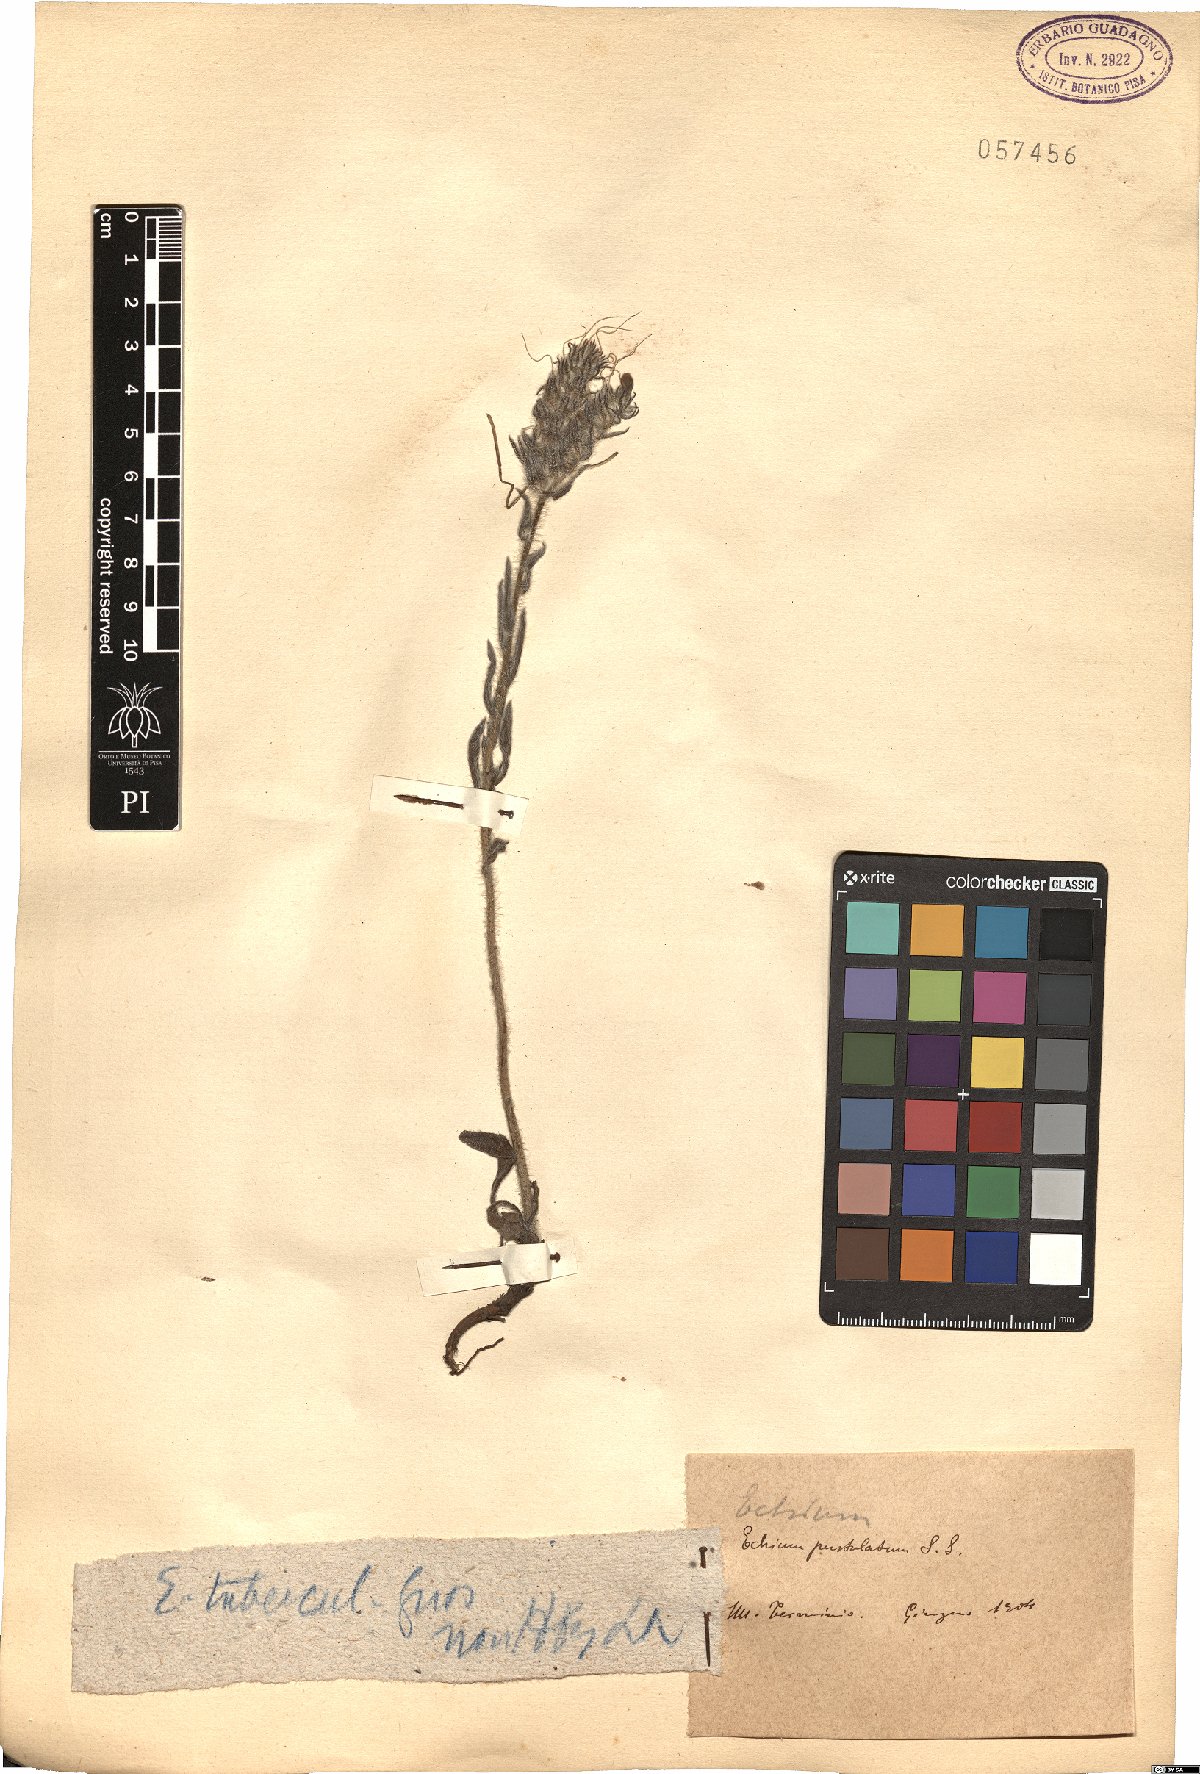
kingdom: Plantae
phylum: Tracheophyta
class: Magnoliopsida
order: Boraginales
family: Boraginaceae
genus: Echium
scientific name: Echium tuberculatum
